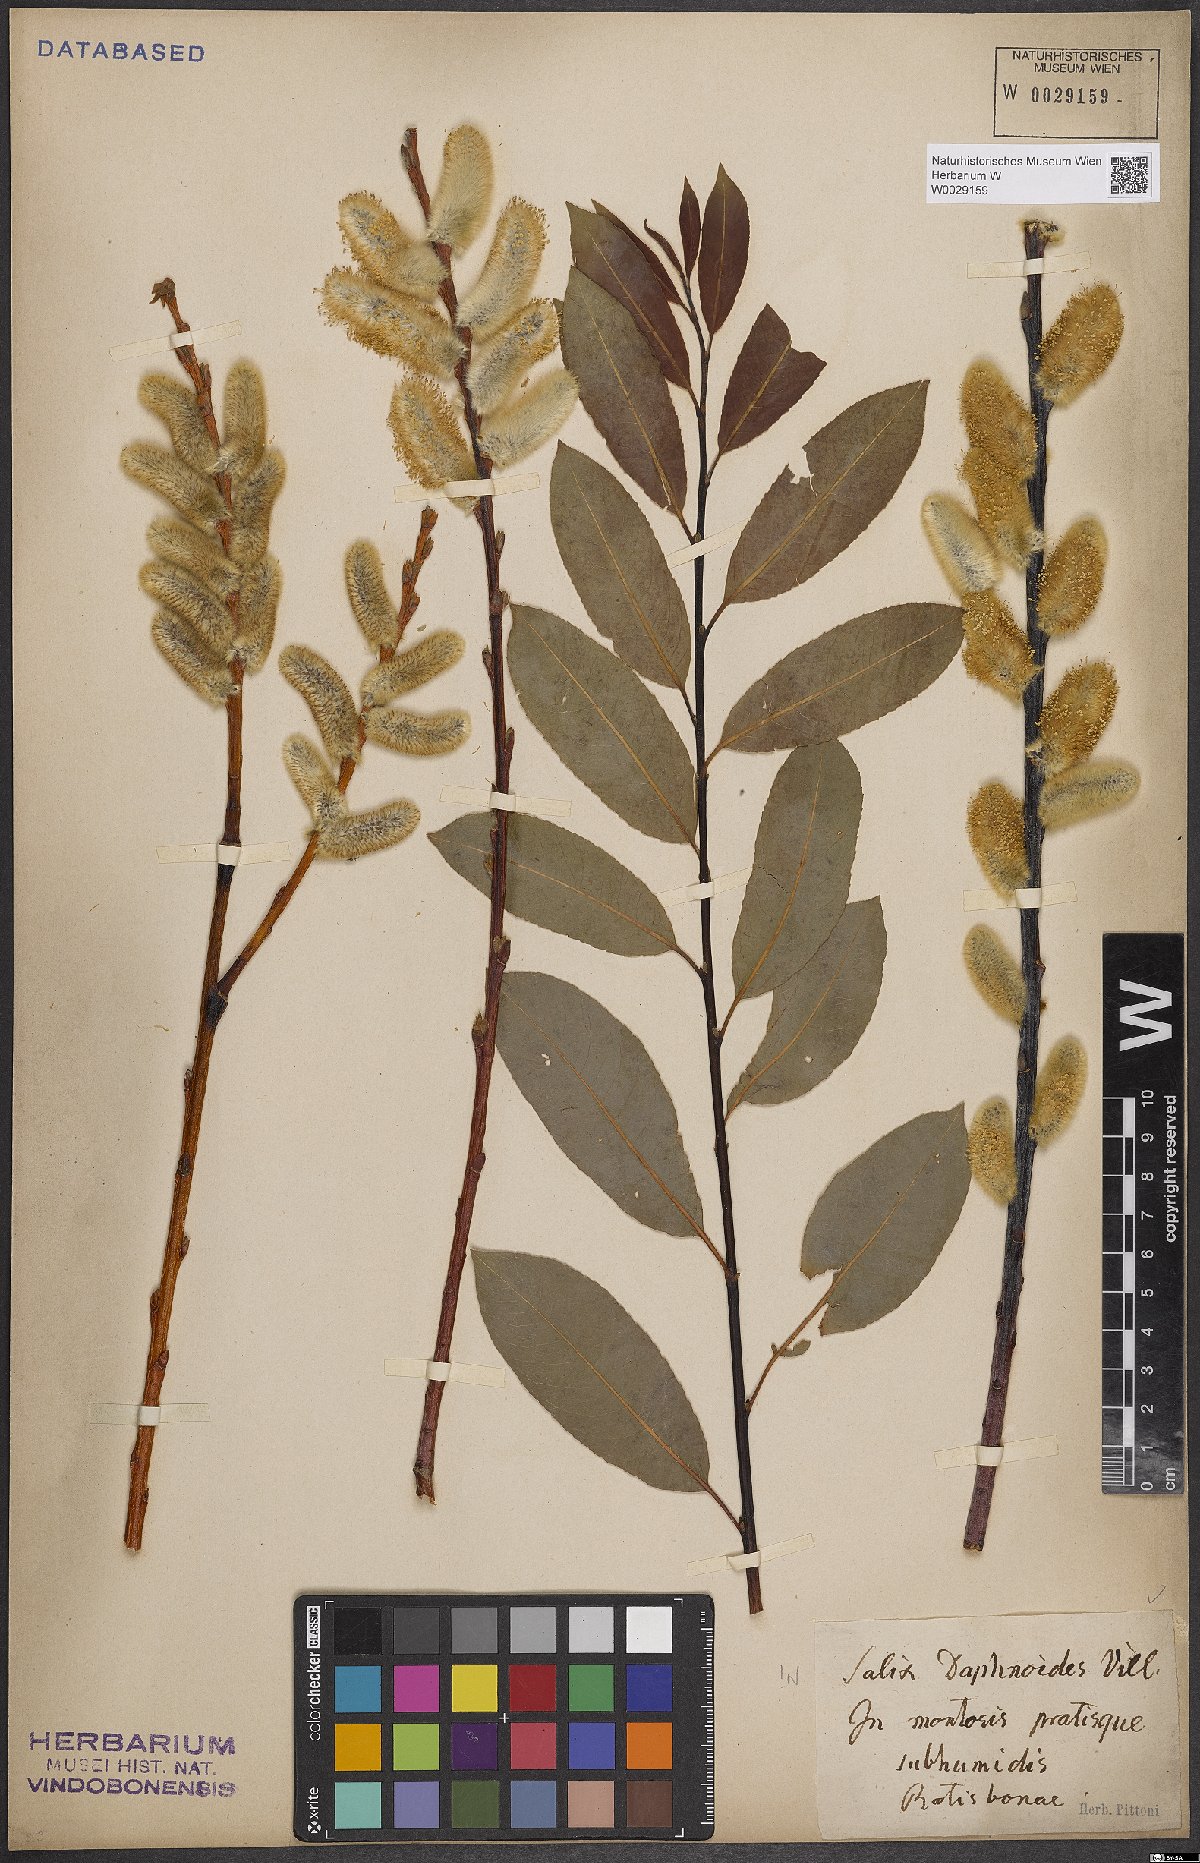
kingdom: Plantae
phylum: Tracheophyta
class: Magnoliopsida
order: Malpighiales
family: Salicaceae
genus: Salix
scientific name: Salix daphnoides
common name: European violet-willow
